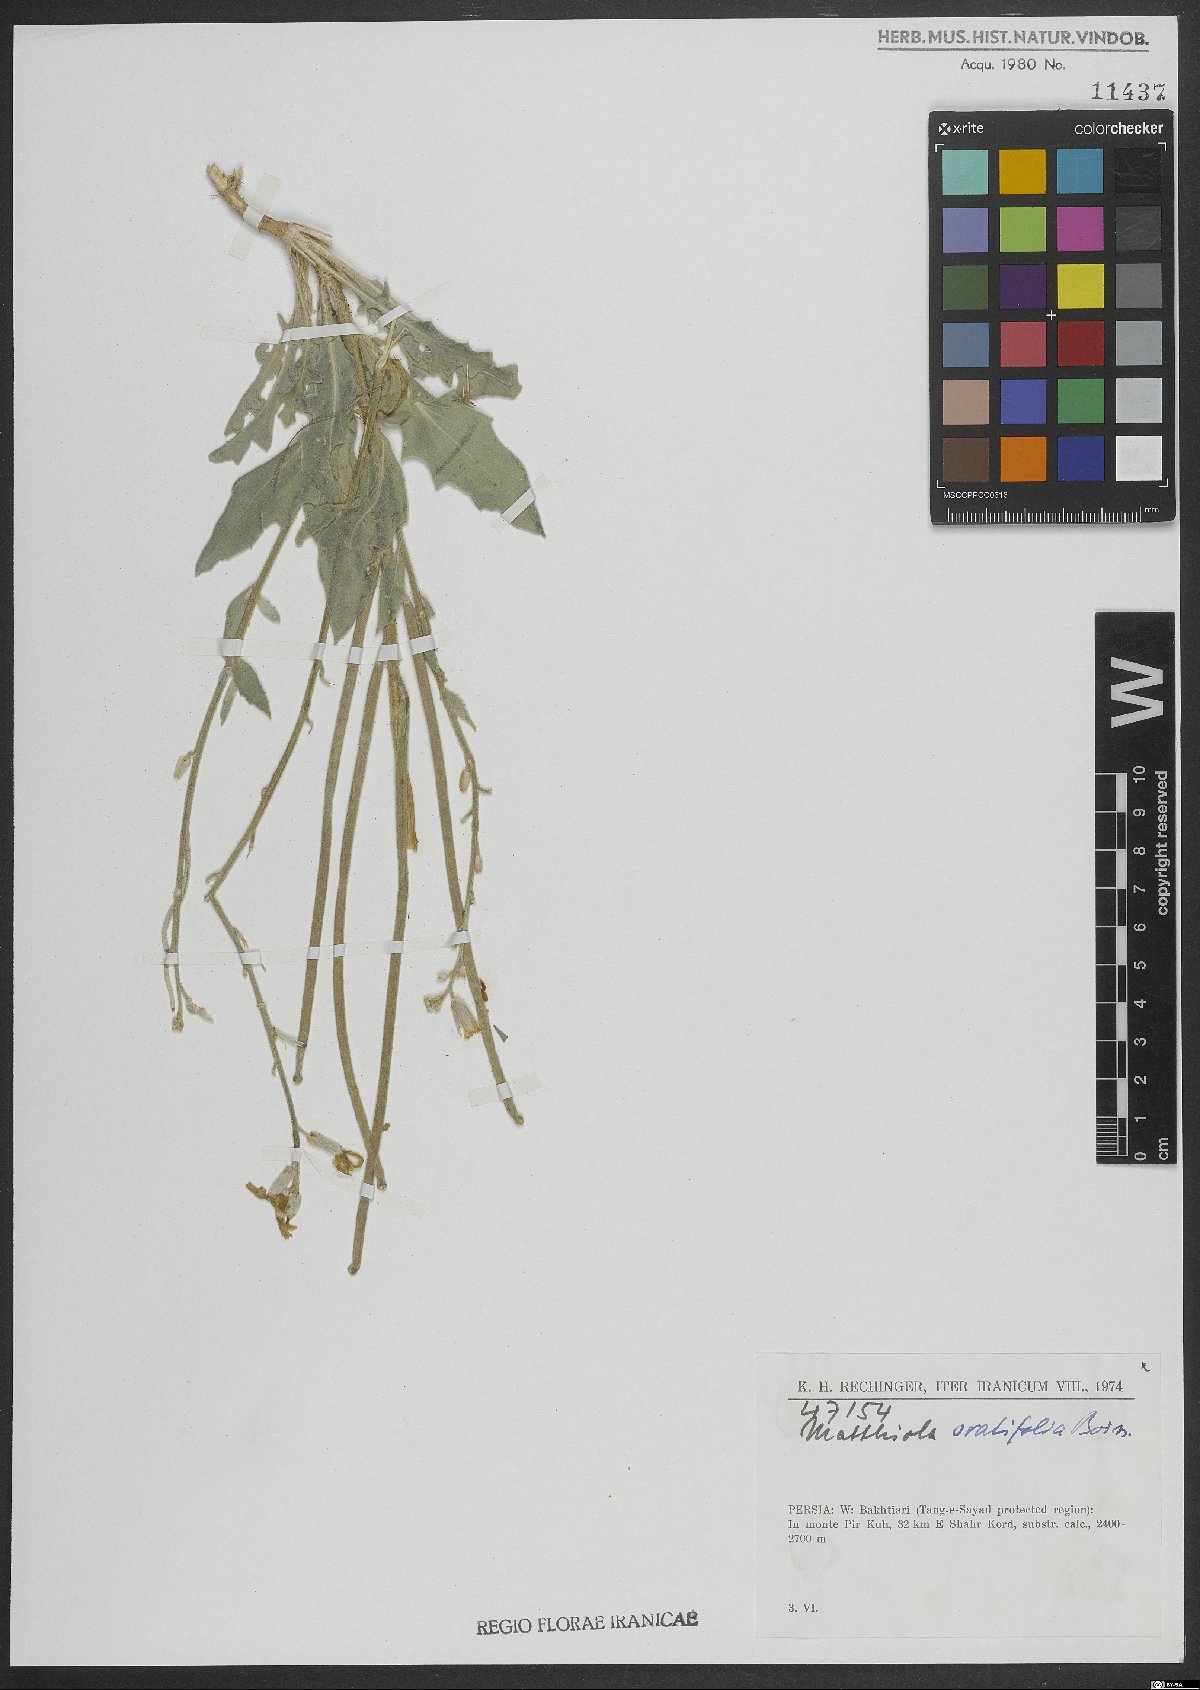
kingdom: Plantae
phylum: Tracheophyta
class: Magnoliopsida
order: Brassicales
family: Brassicaceae
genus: Matthiola
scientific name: Matthiola ovatifolia
